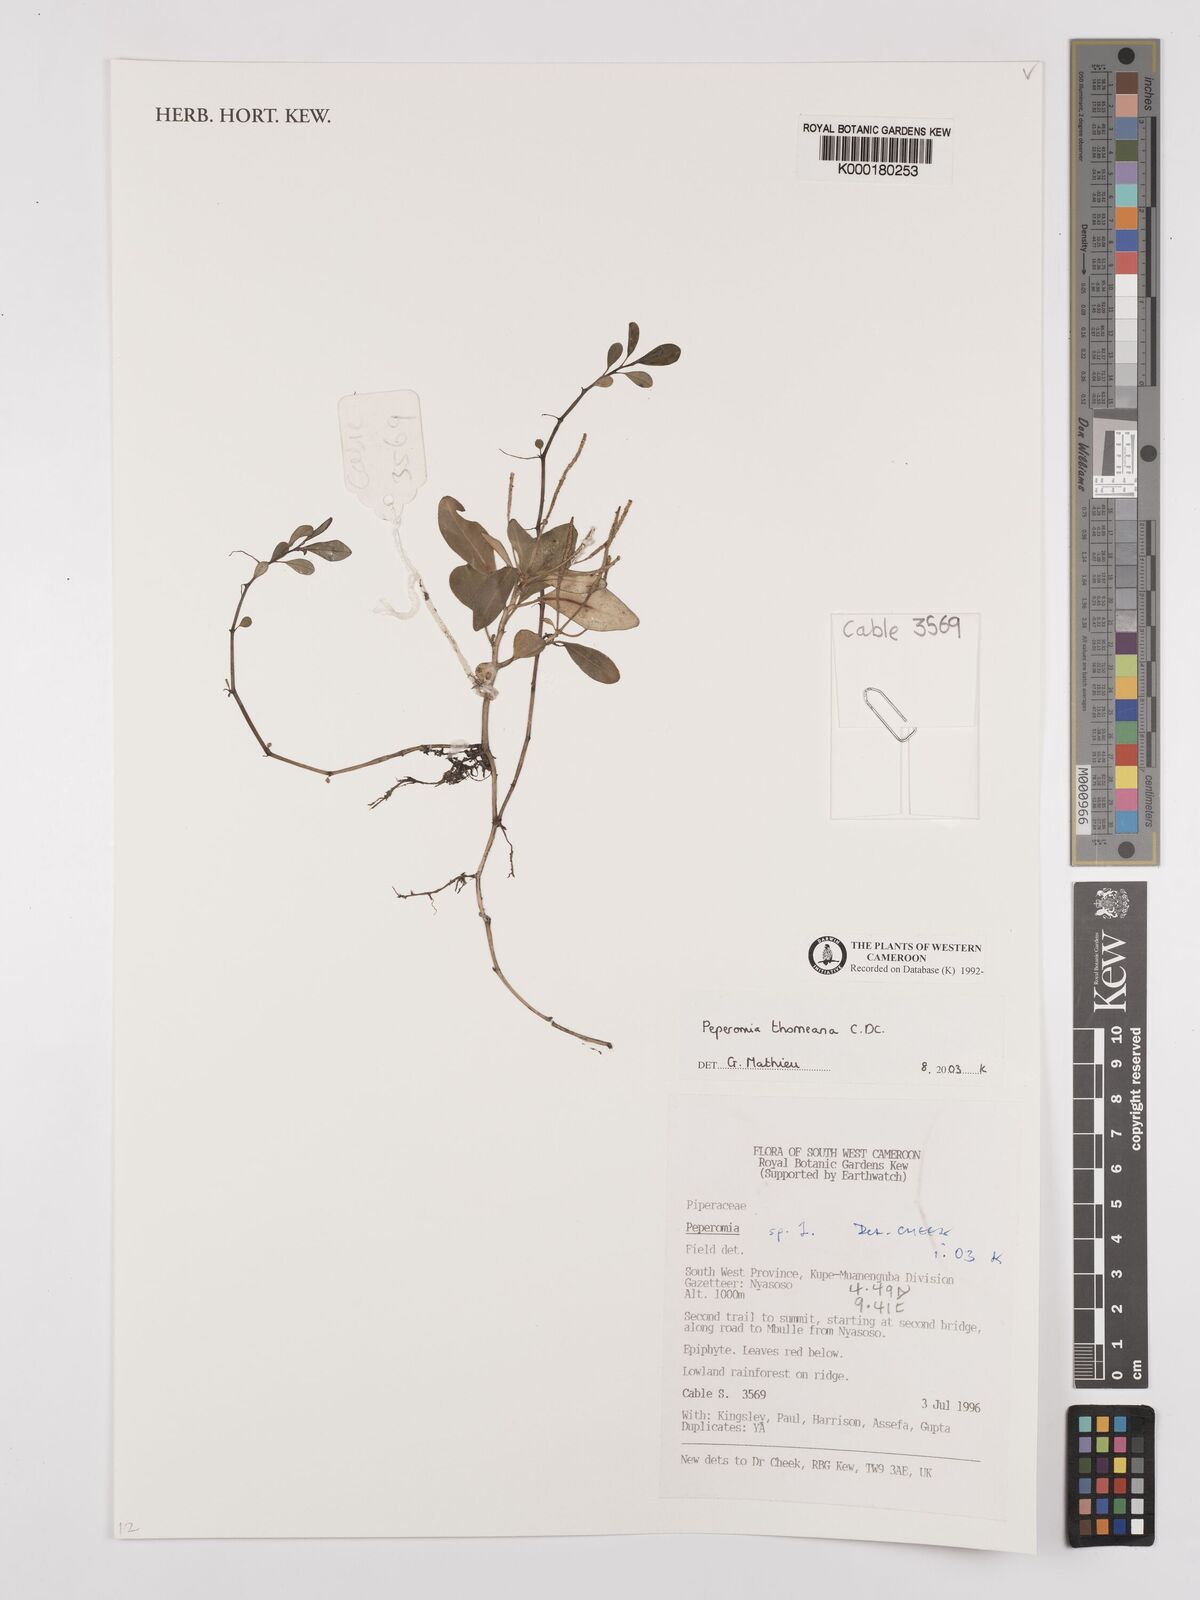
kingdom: Plantae
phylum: Tracheophyta
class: Magnoliopsida
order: Piperales
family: Piperaceae
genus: Peperomia
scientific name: Peperomia thomeana
